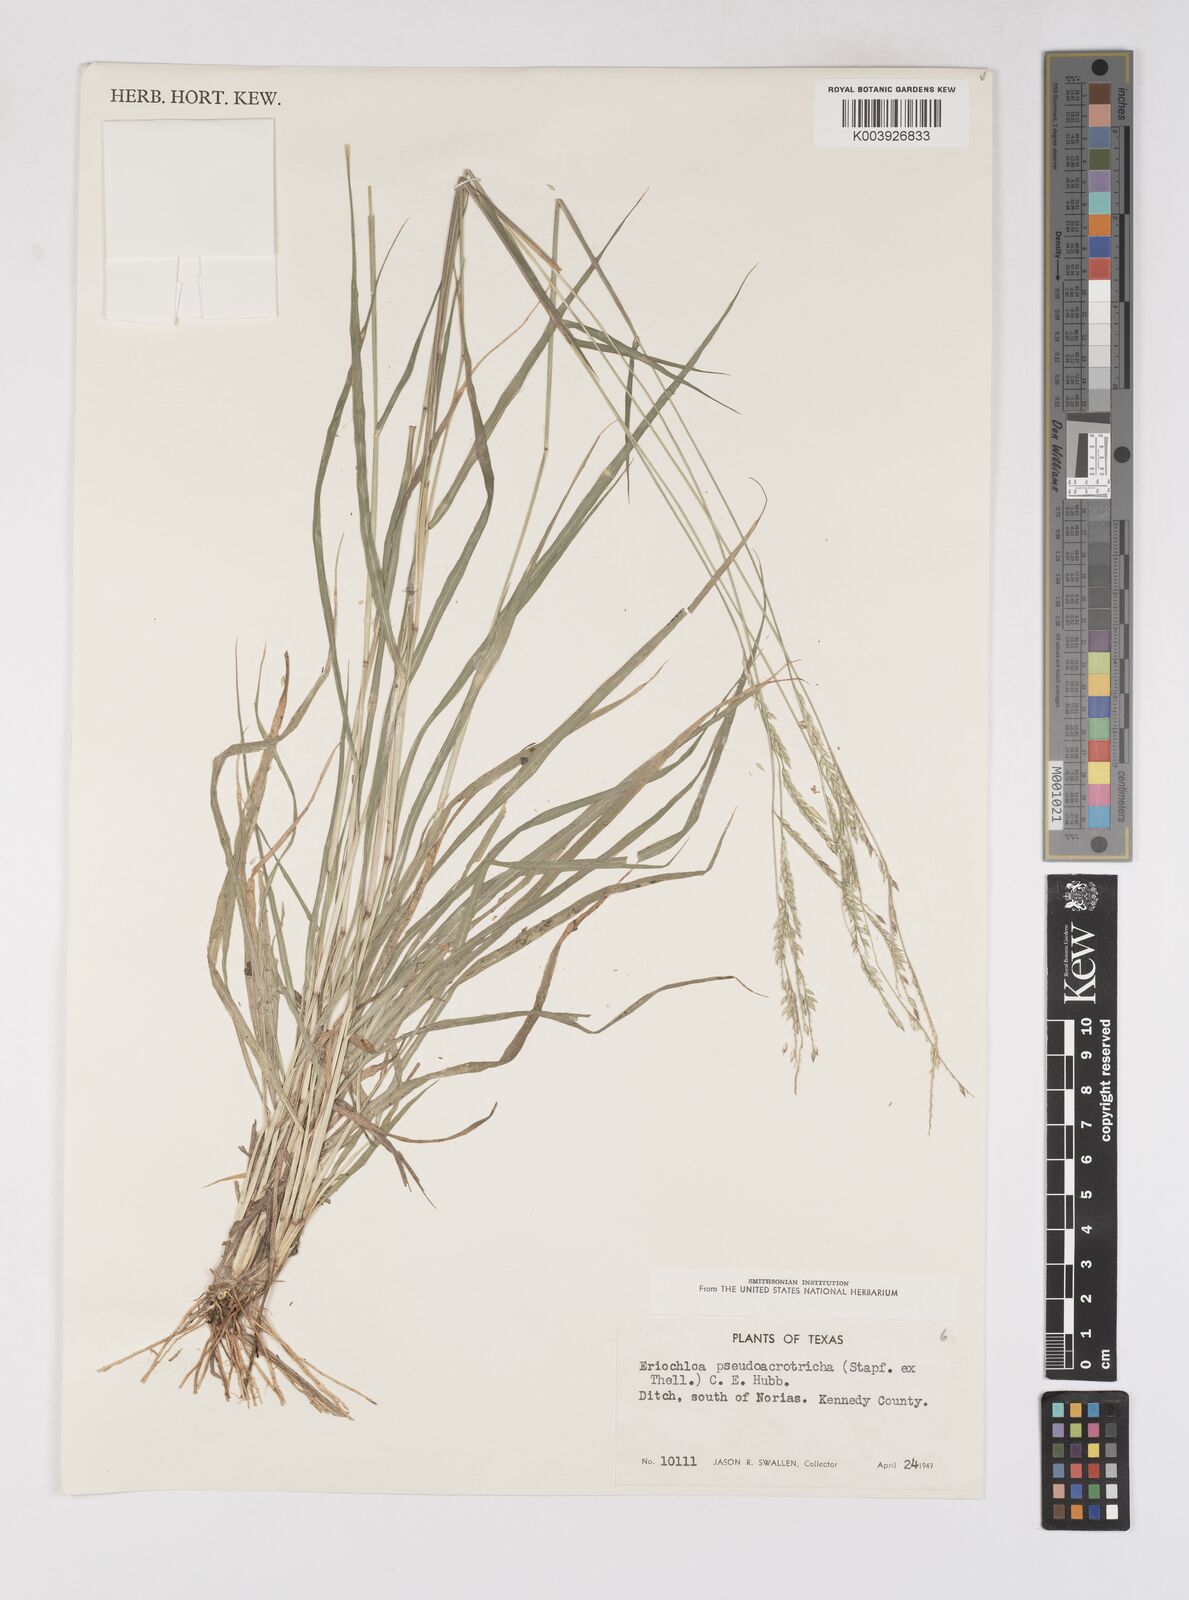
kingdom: Plantae
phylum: Tracheophyta
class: Liliopsida
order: Poales
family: Poaceae
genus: Eriochloa
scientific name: Eriochloa pseudoacrotricha
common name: Perennial cup-grass
